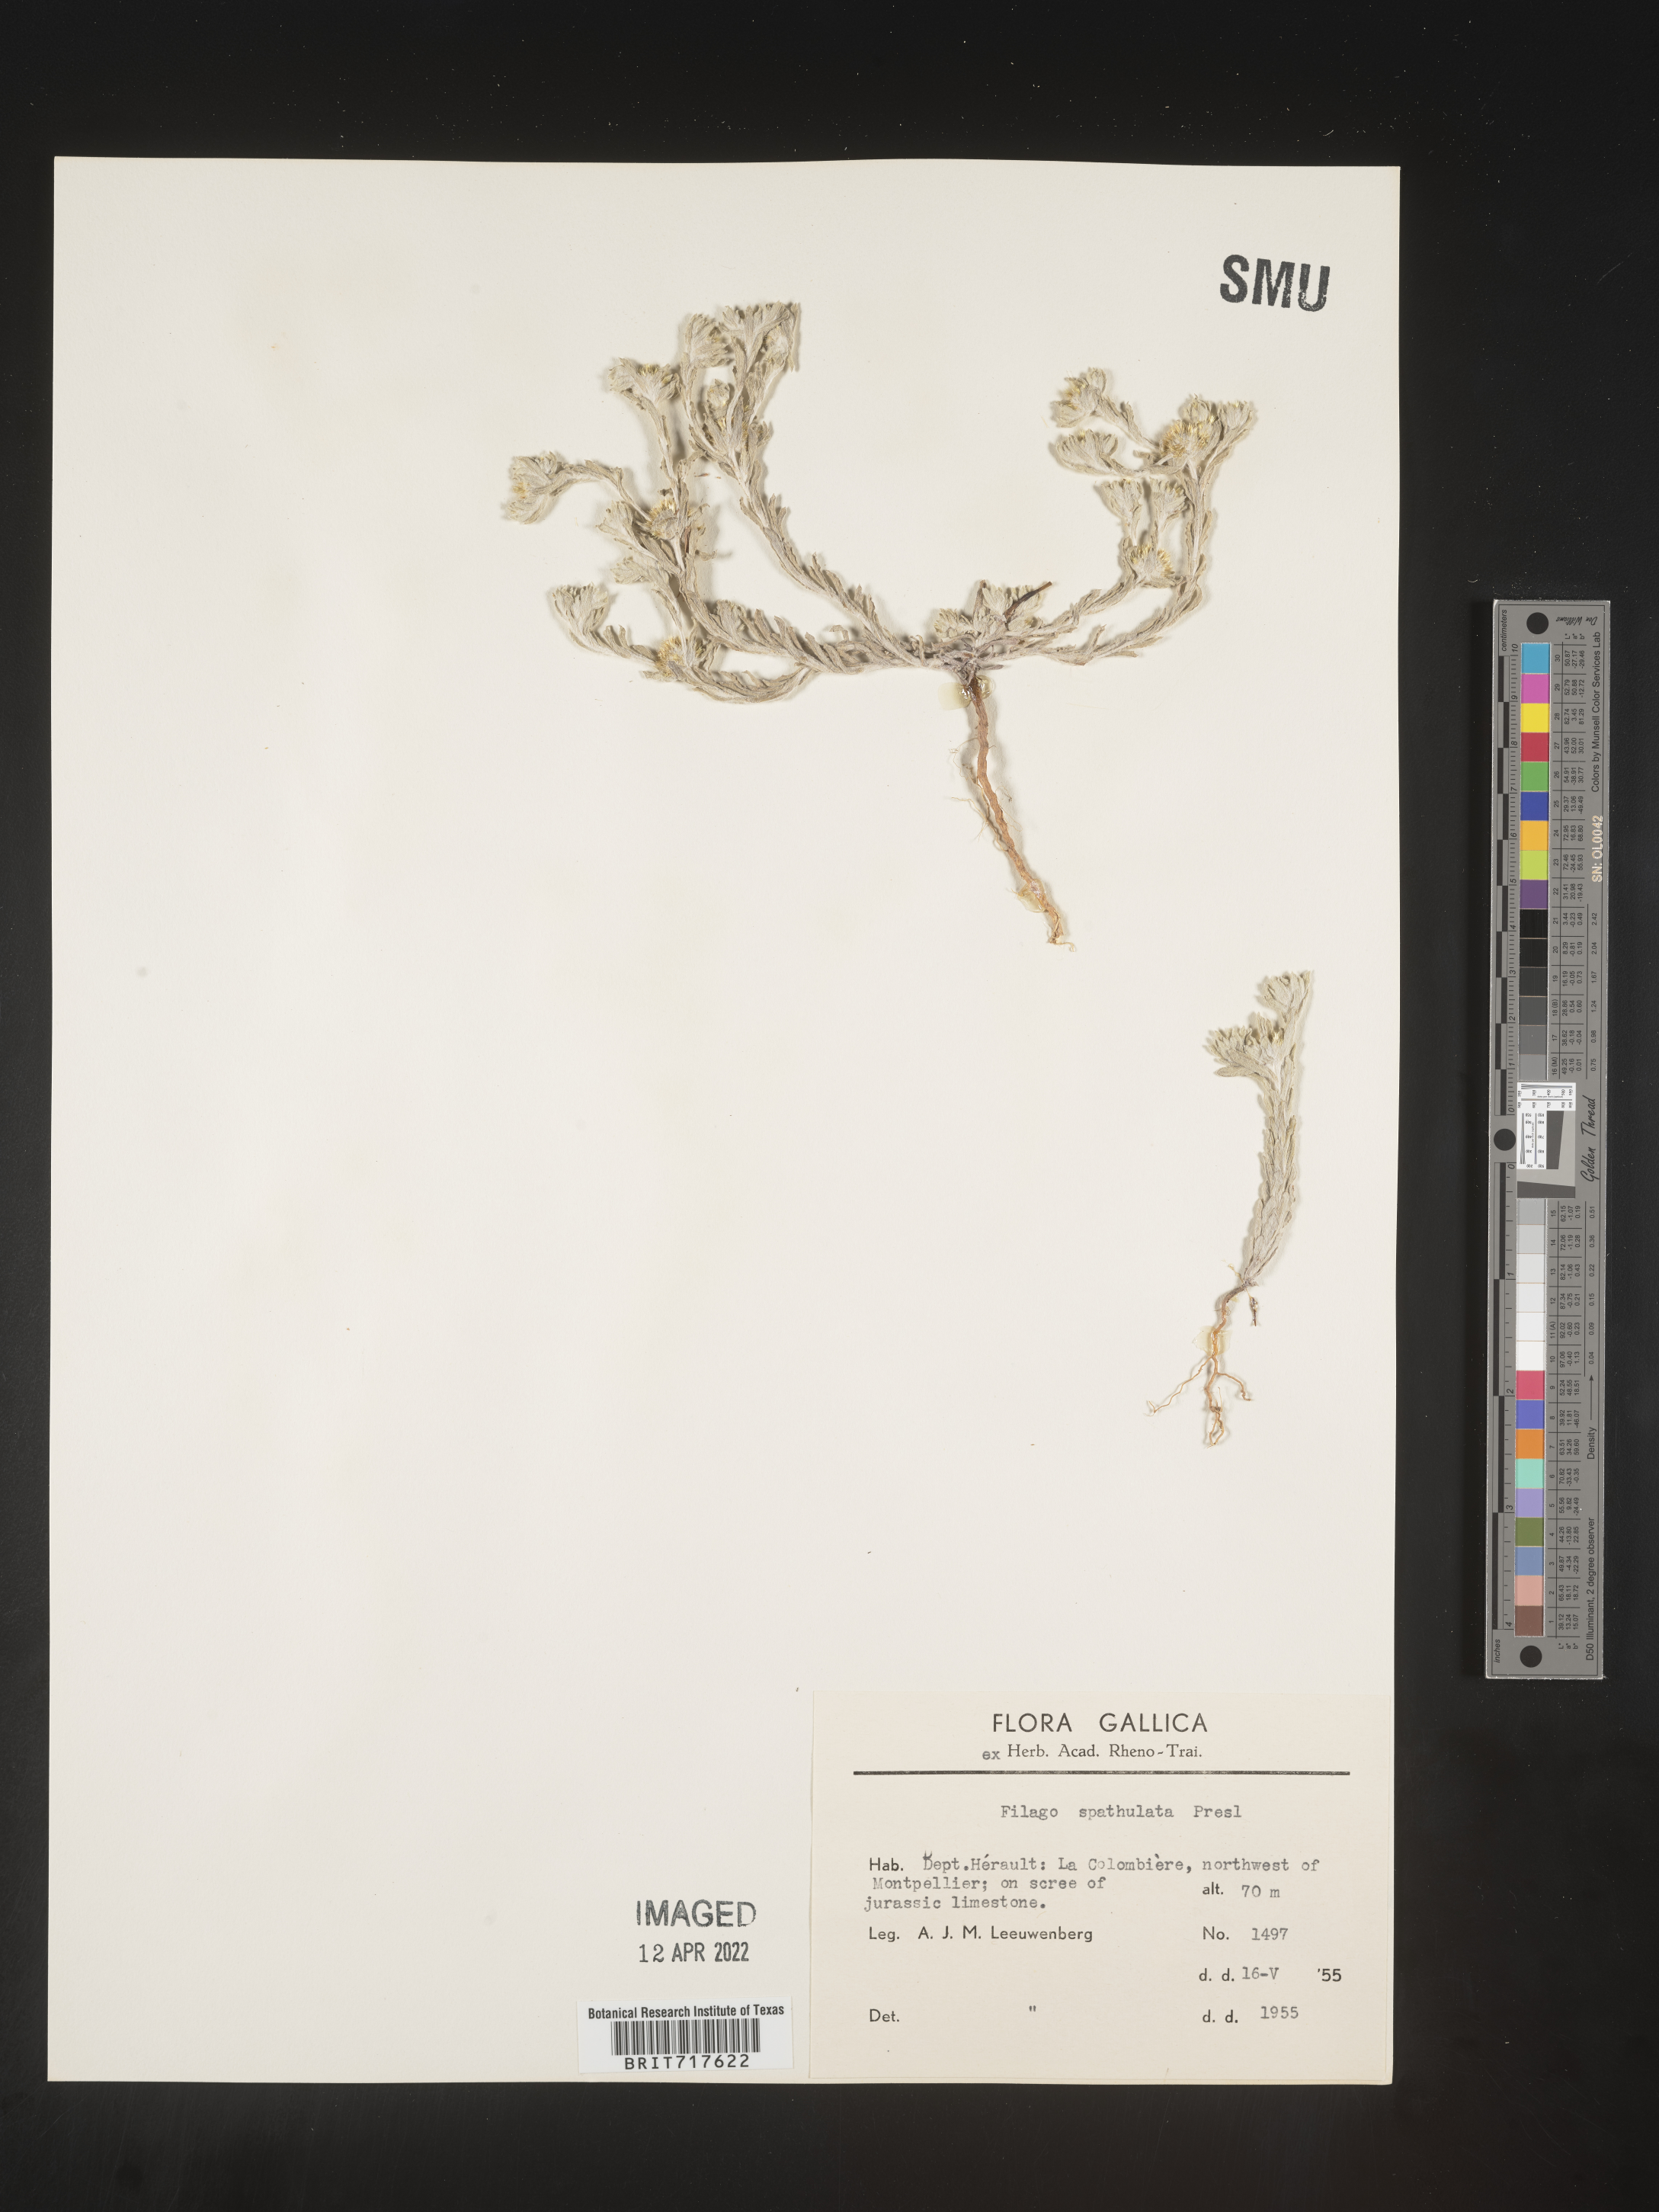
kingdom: Plantae
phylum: Tracheophyta
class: Magnoliopsida
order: Asterales
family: Asteraceae
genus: Filago
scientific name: Filago
